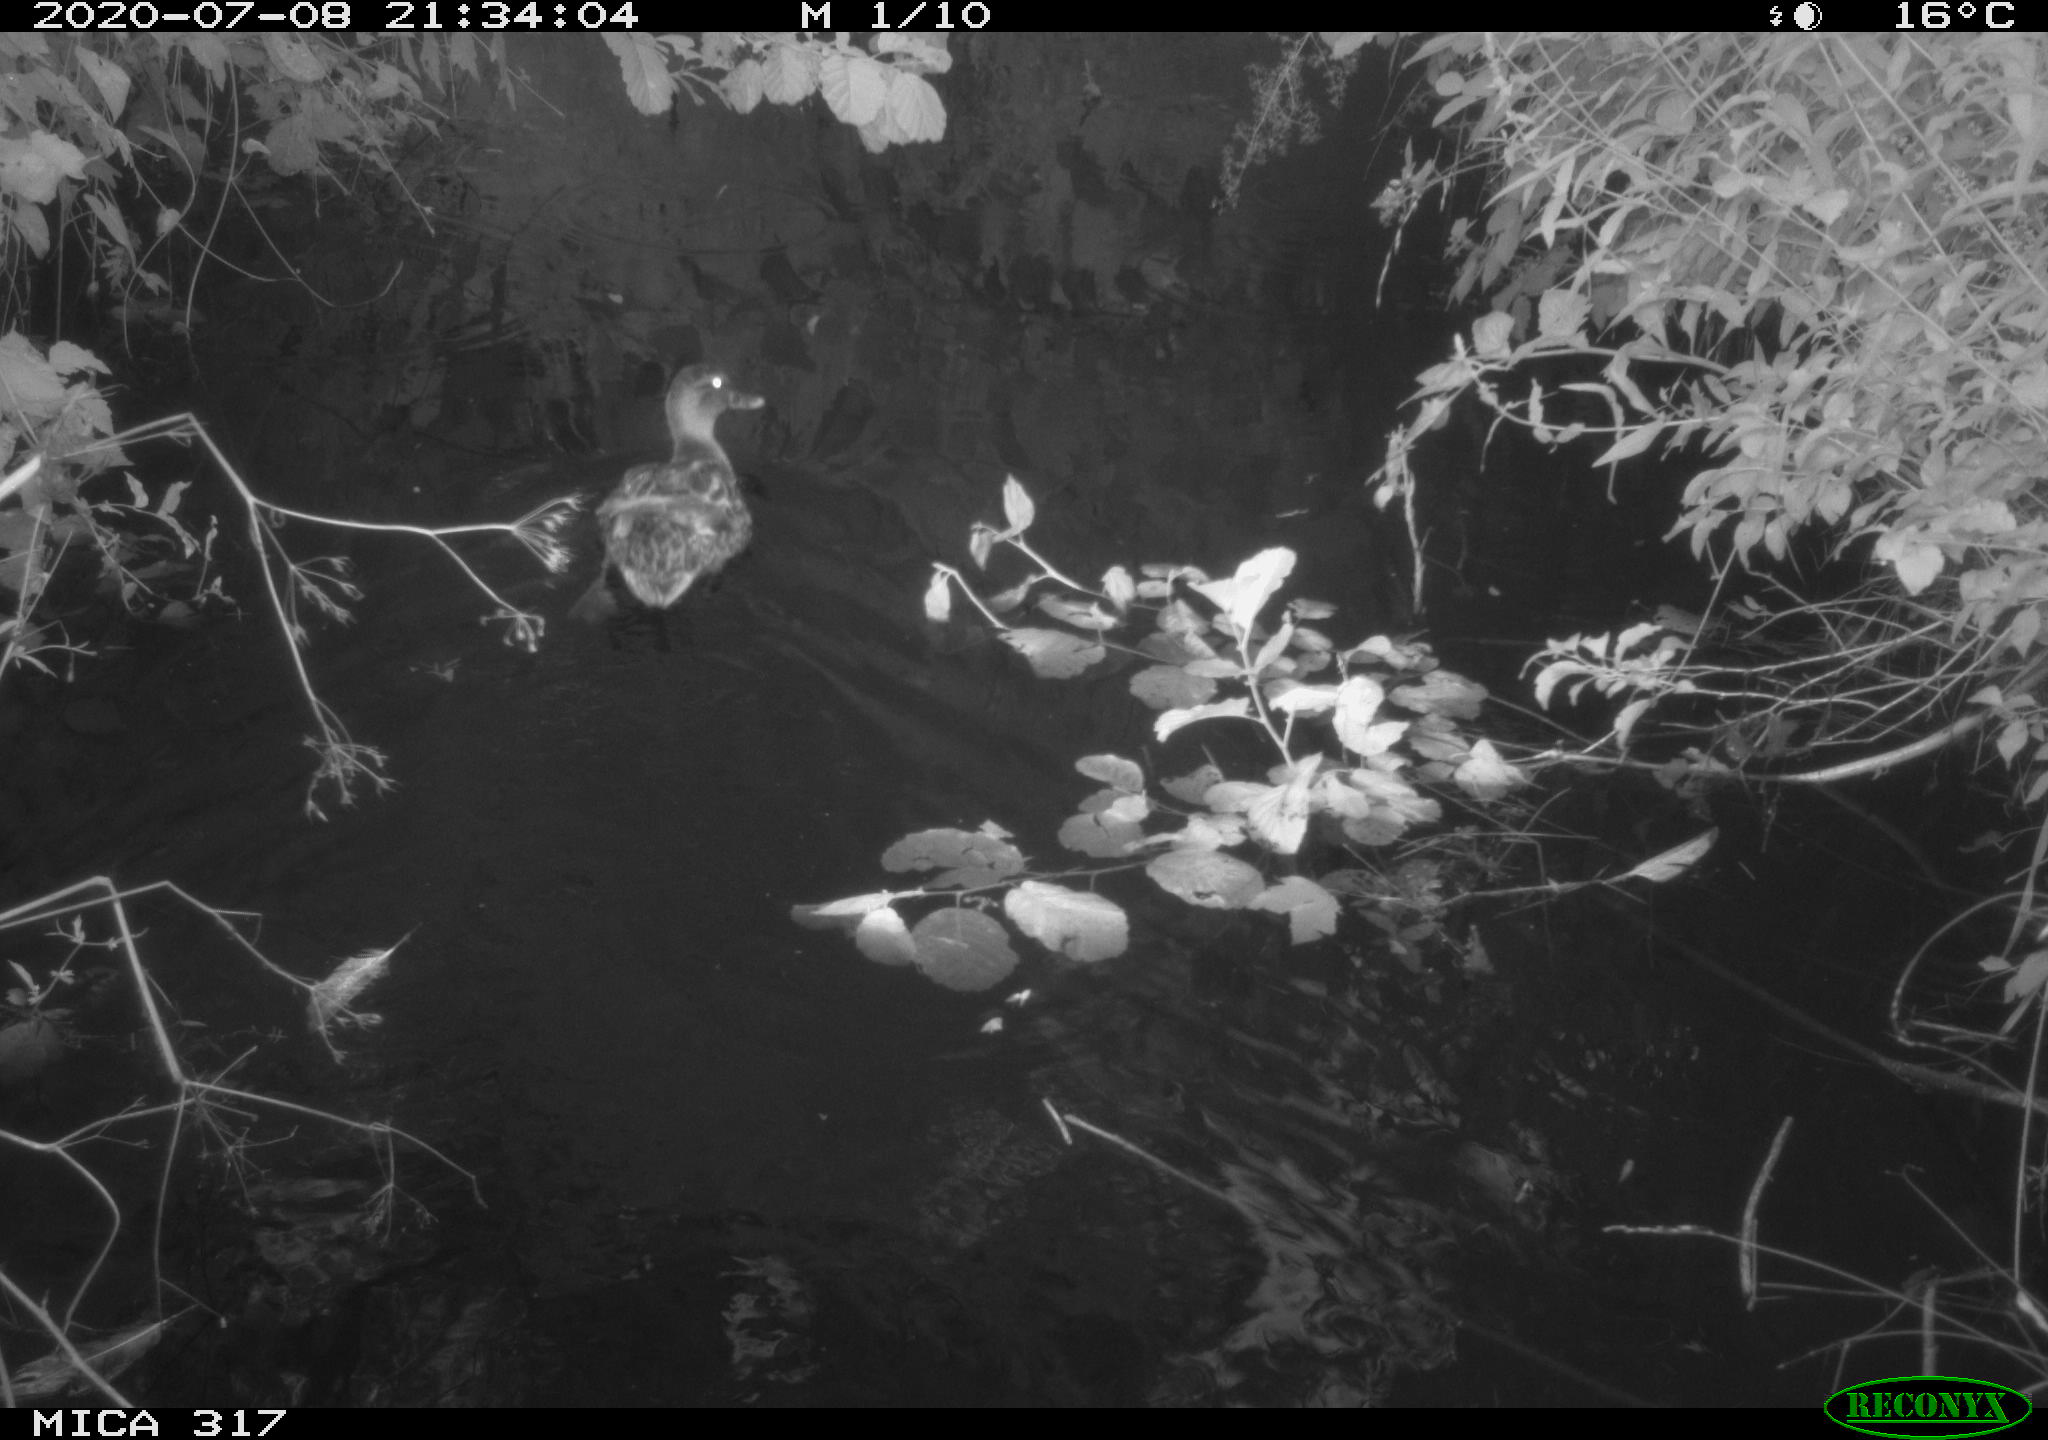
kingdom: Animalia
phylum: Chordata
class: Aves
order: Anseriformes
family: Anatidae
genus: Anas
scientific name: Anas platyrhynchos
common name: Mallard
